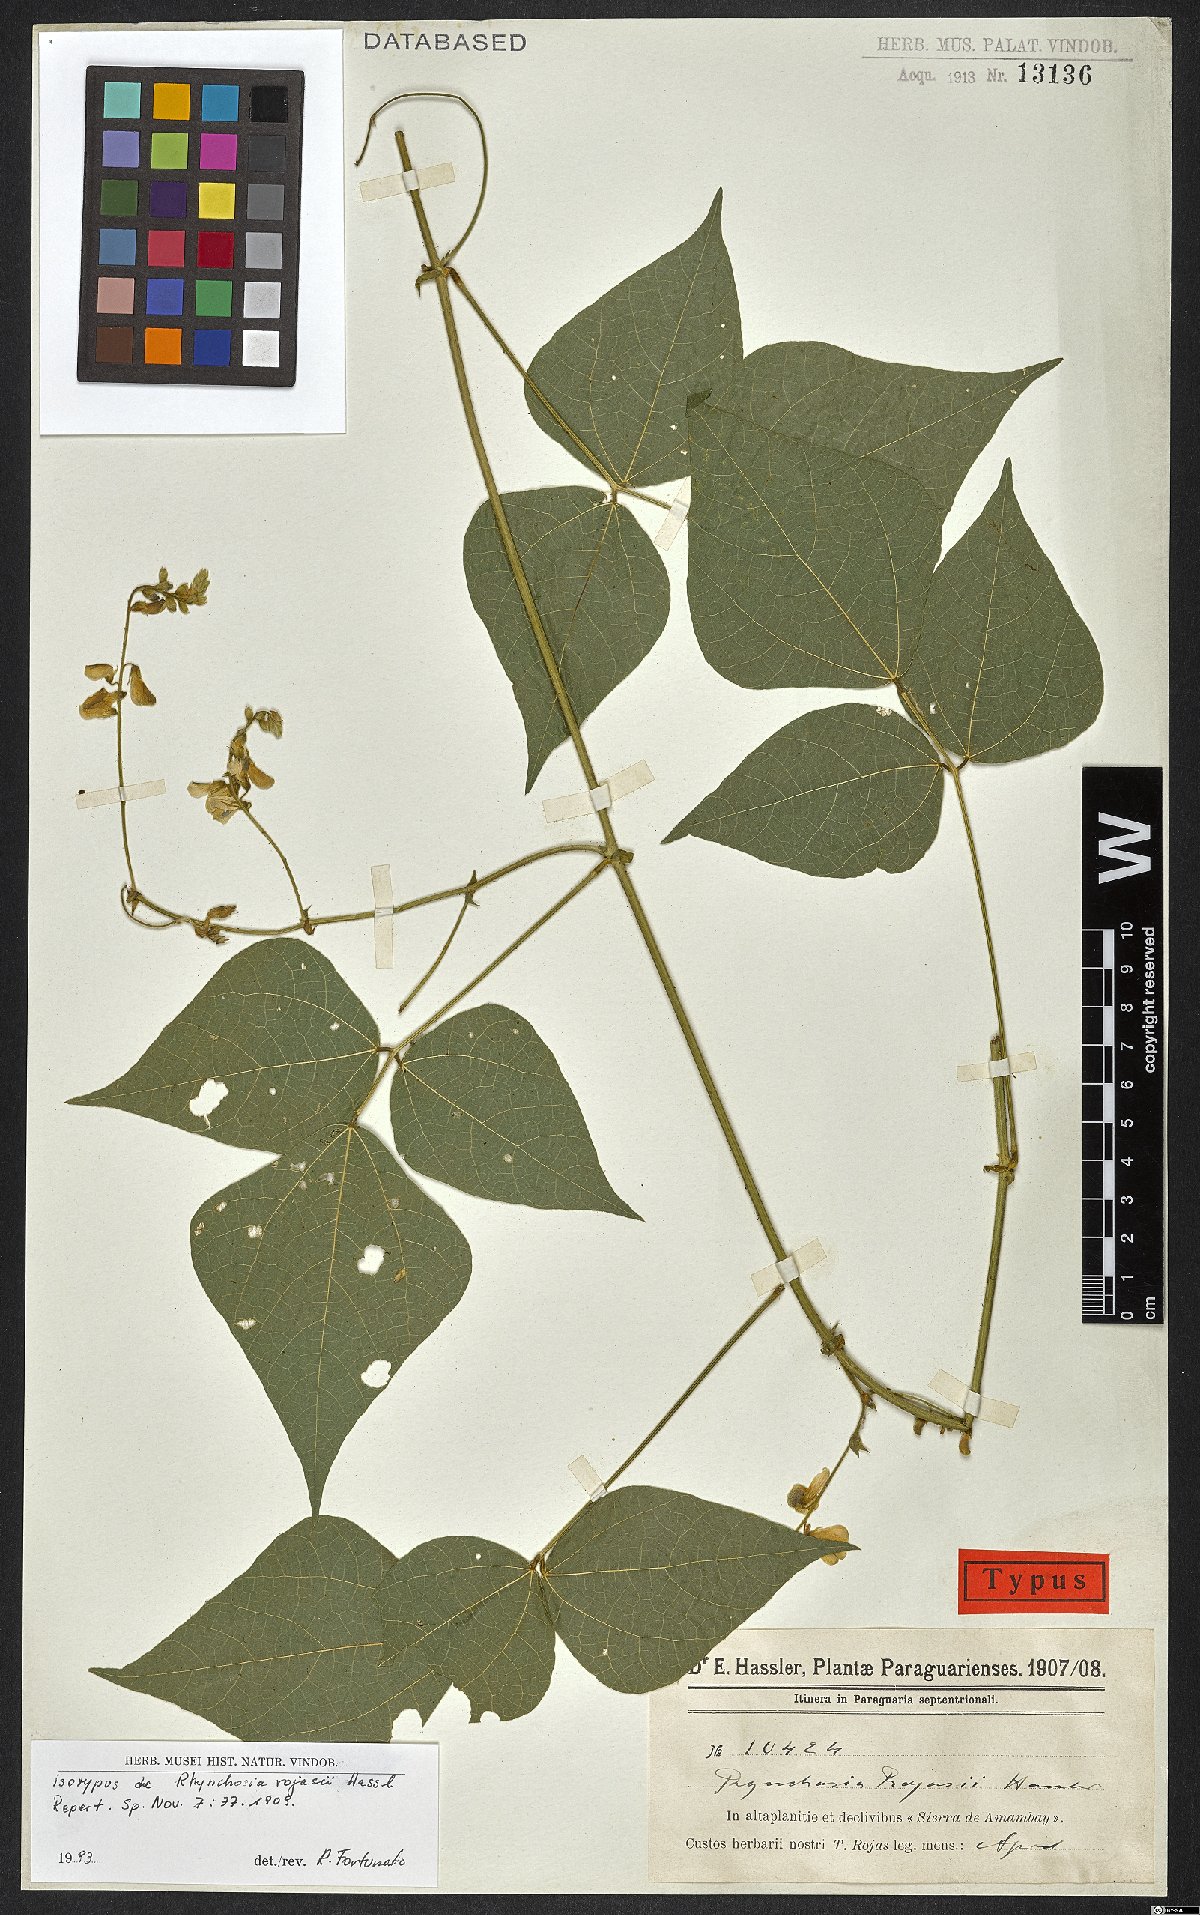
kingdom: Plantae
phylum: Tracheophyta
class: Magnoliopsida
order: Fabales
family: Fabaceae
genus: Rhynchosia
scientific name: Rhynchosia rojasii
